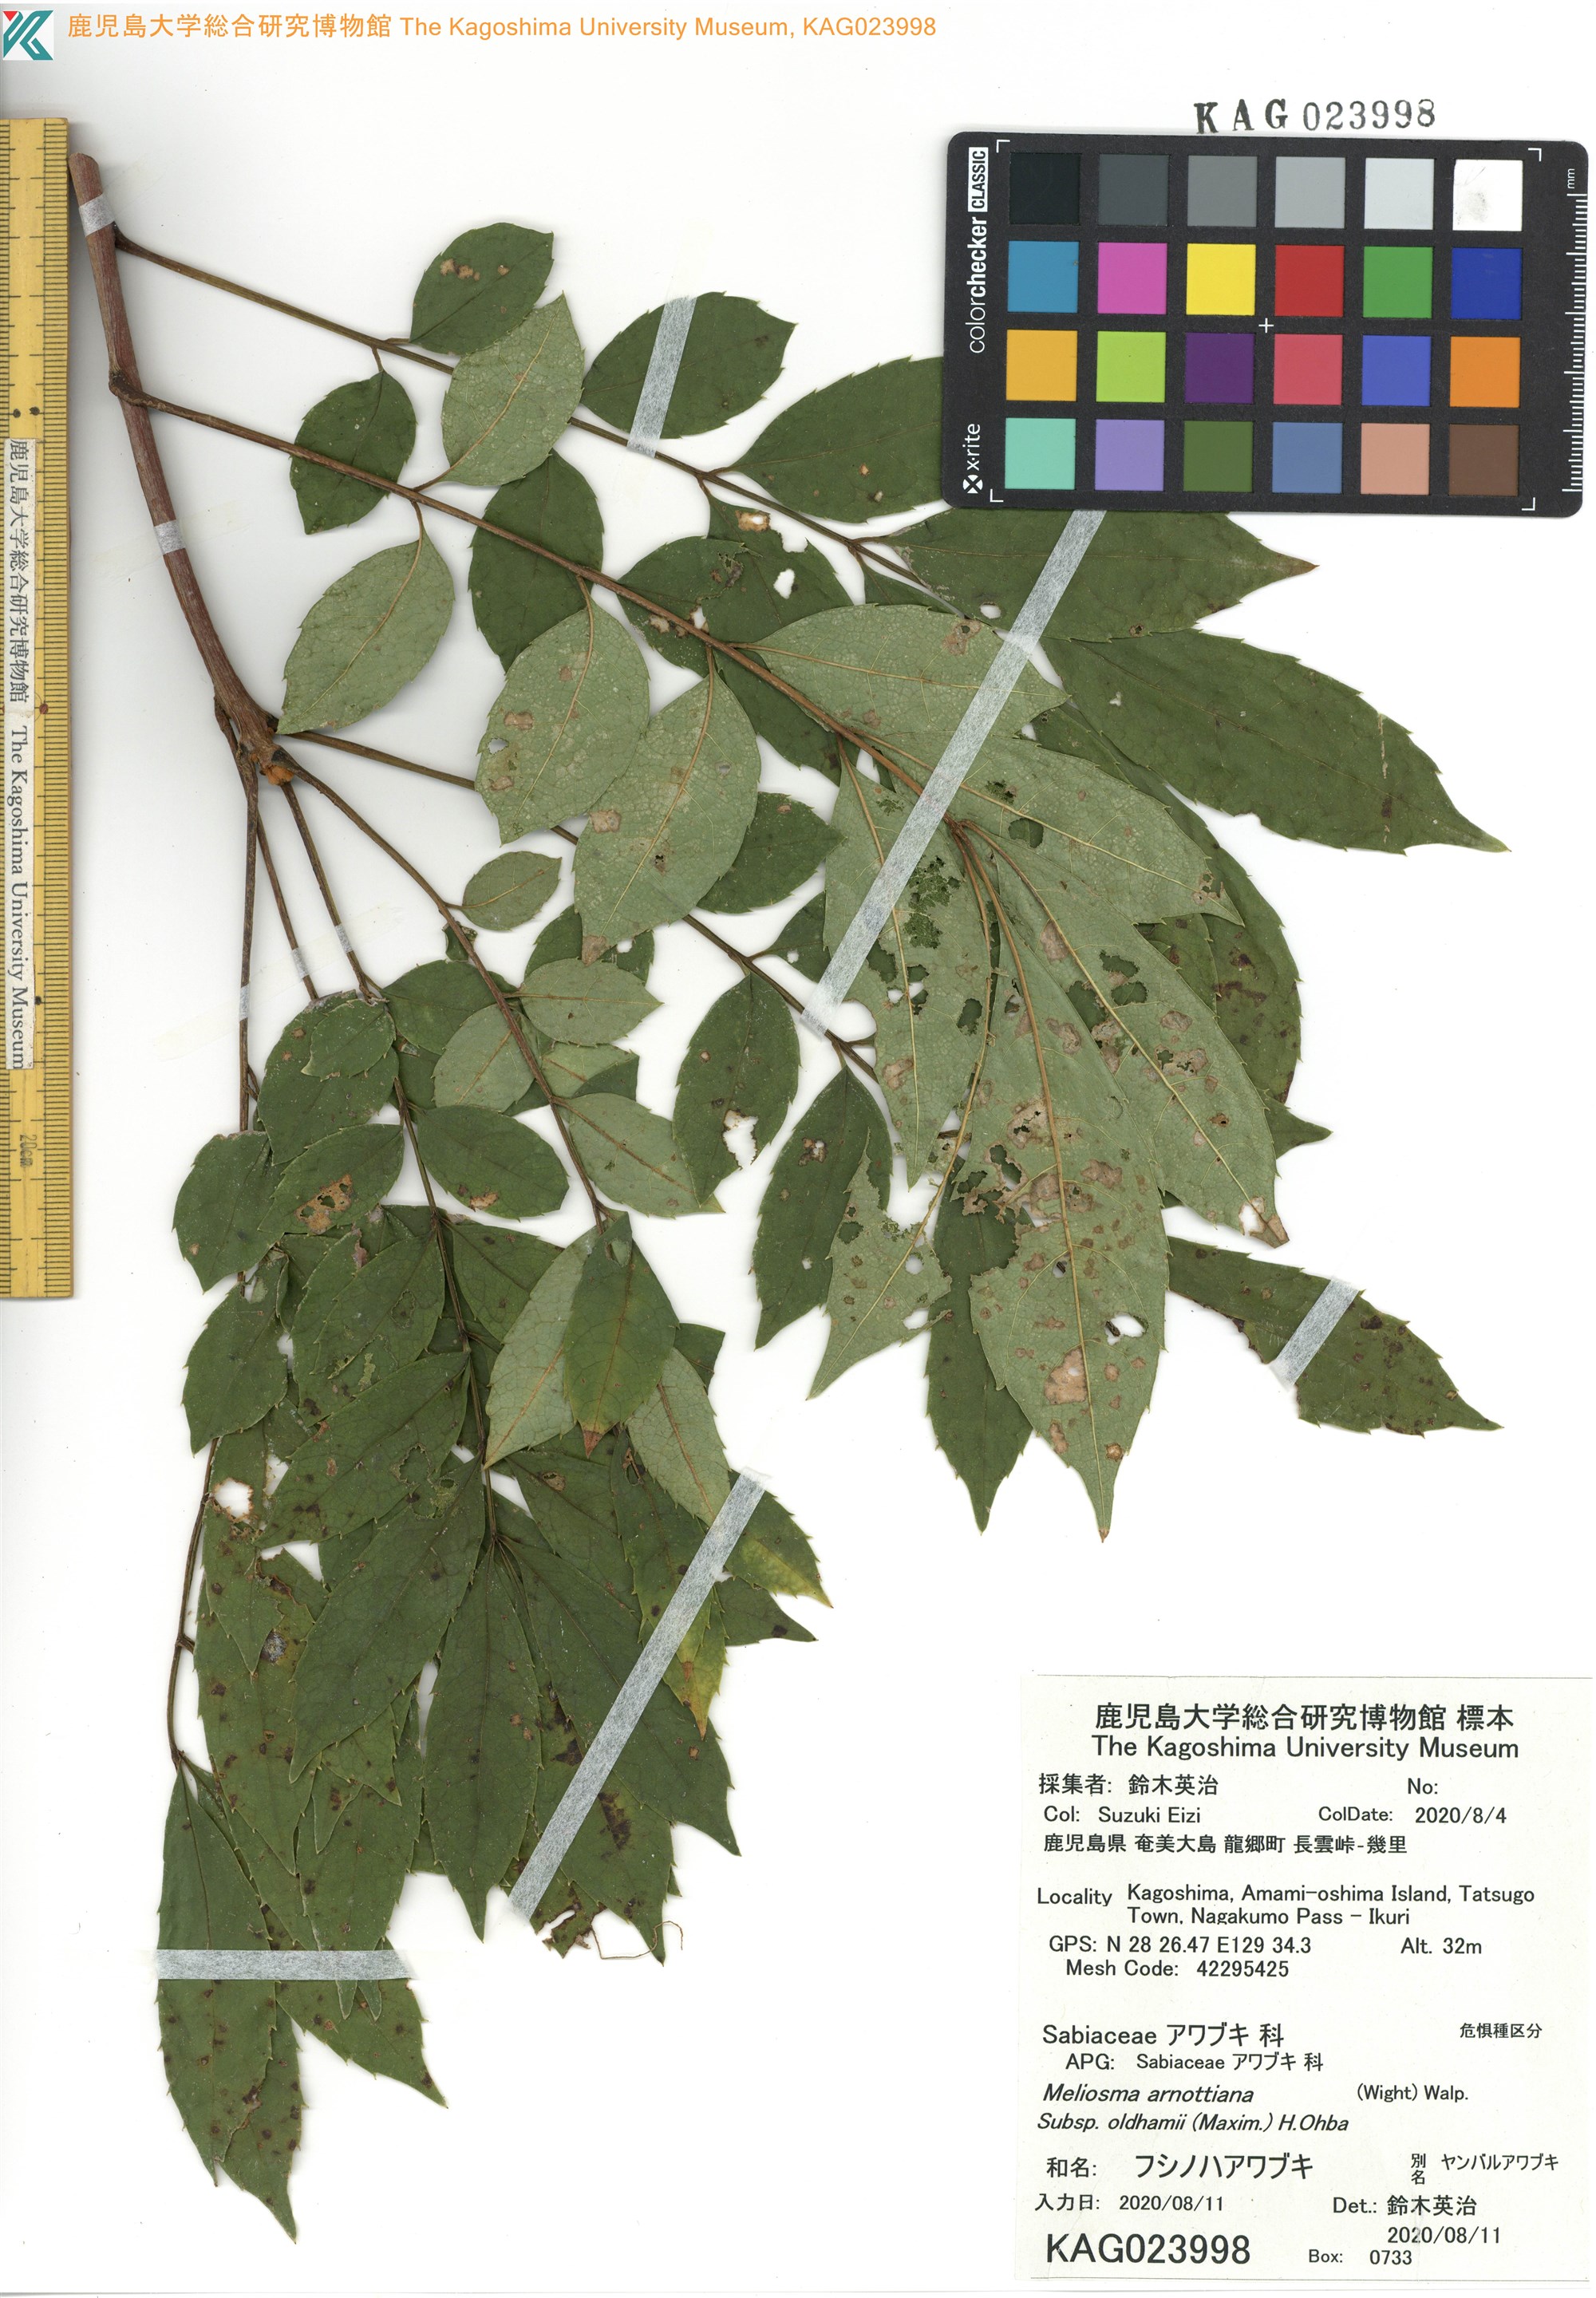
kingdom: Plantae
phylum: Tracheophyta
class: Magnoliopsida
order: Proteales
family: Sabiaceae
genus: Meliosma
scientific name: Meliosma oldhamii
